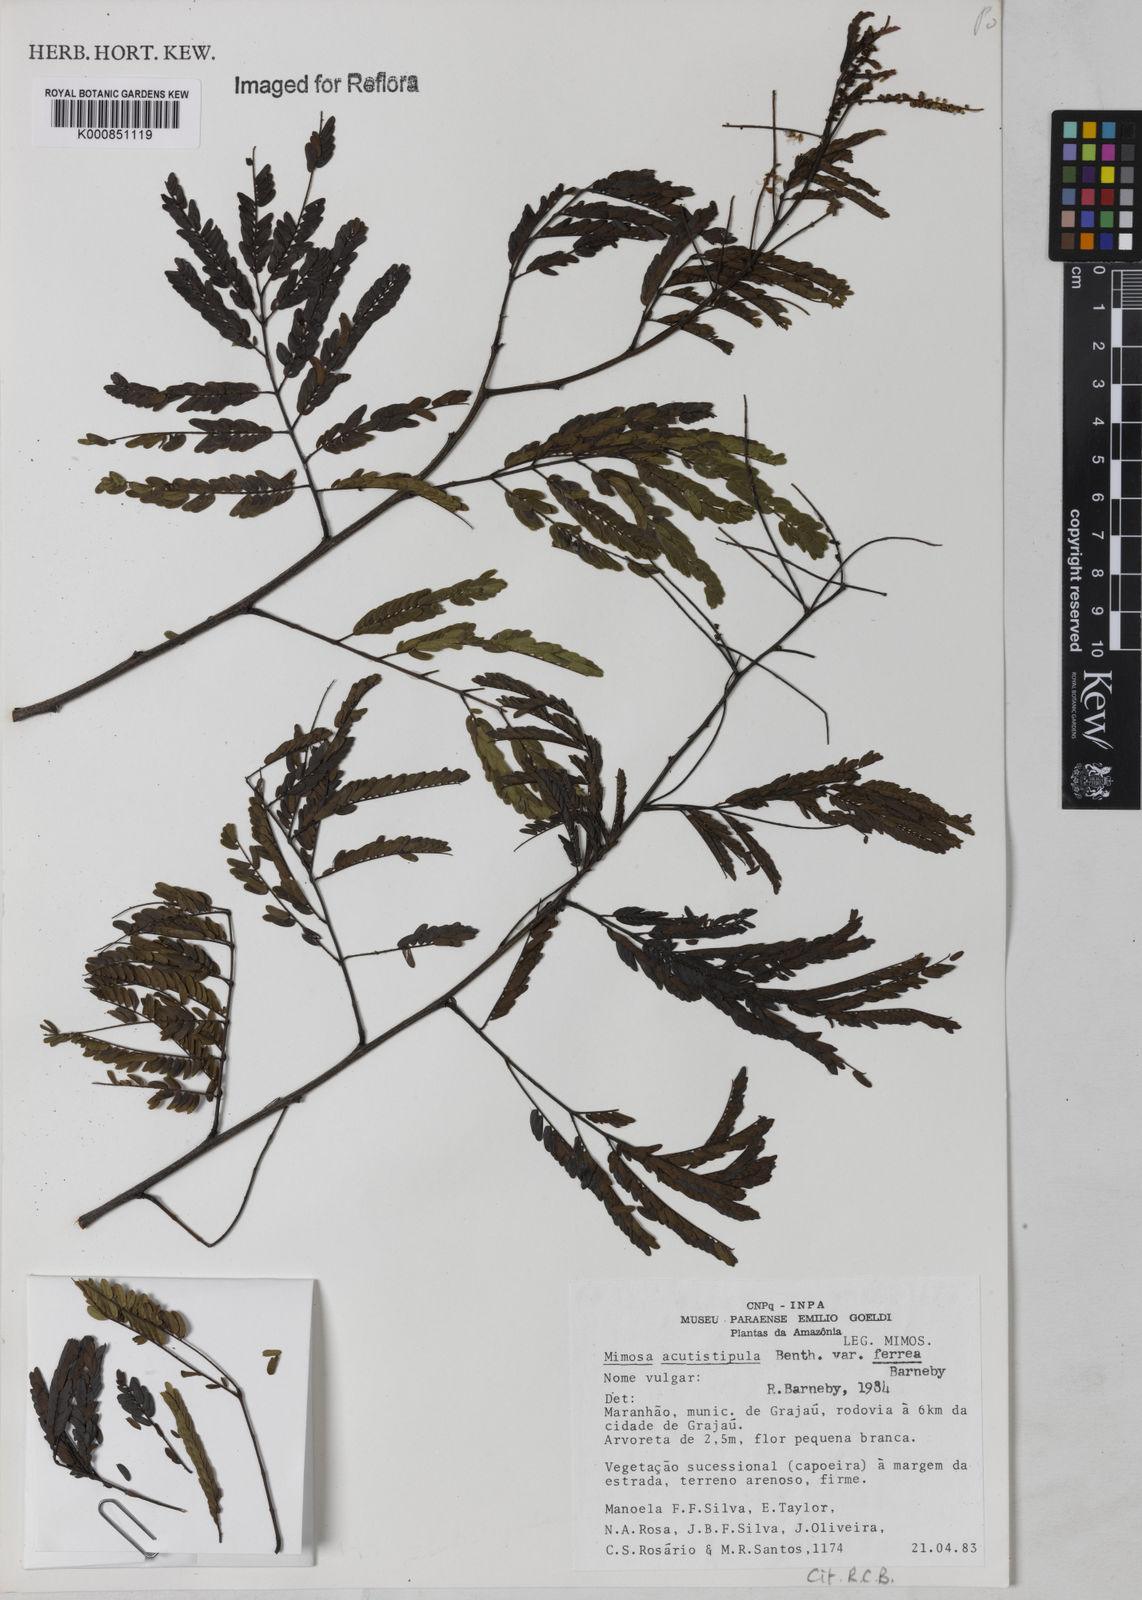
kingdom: Plantae
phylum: Tracheophyta
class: Magnoliopsida
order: Fabales
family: Fabaceae
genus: Mimosa
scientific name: Mimosa acutistipula
